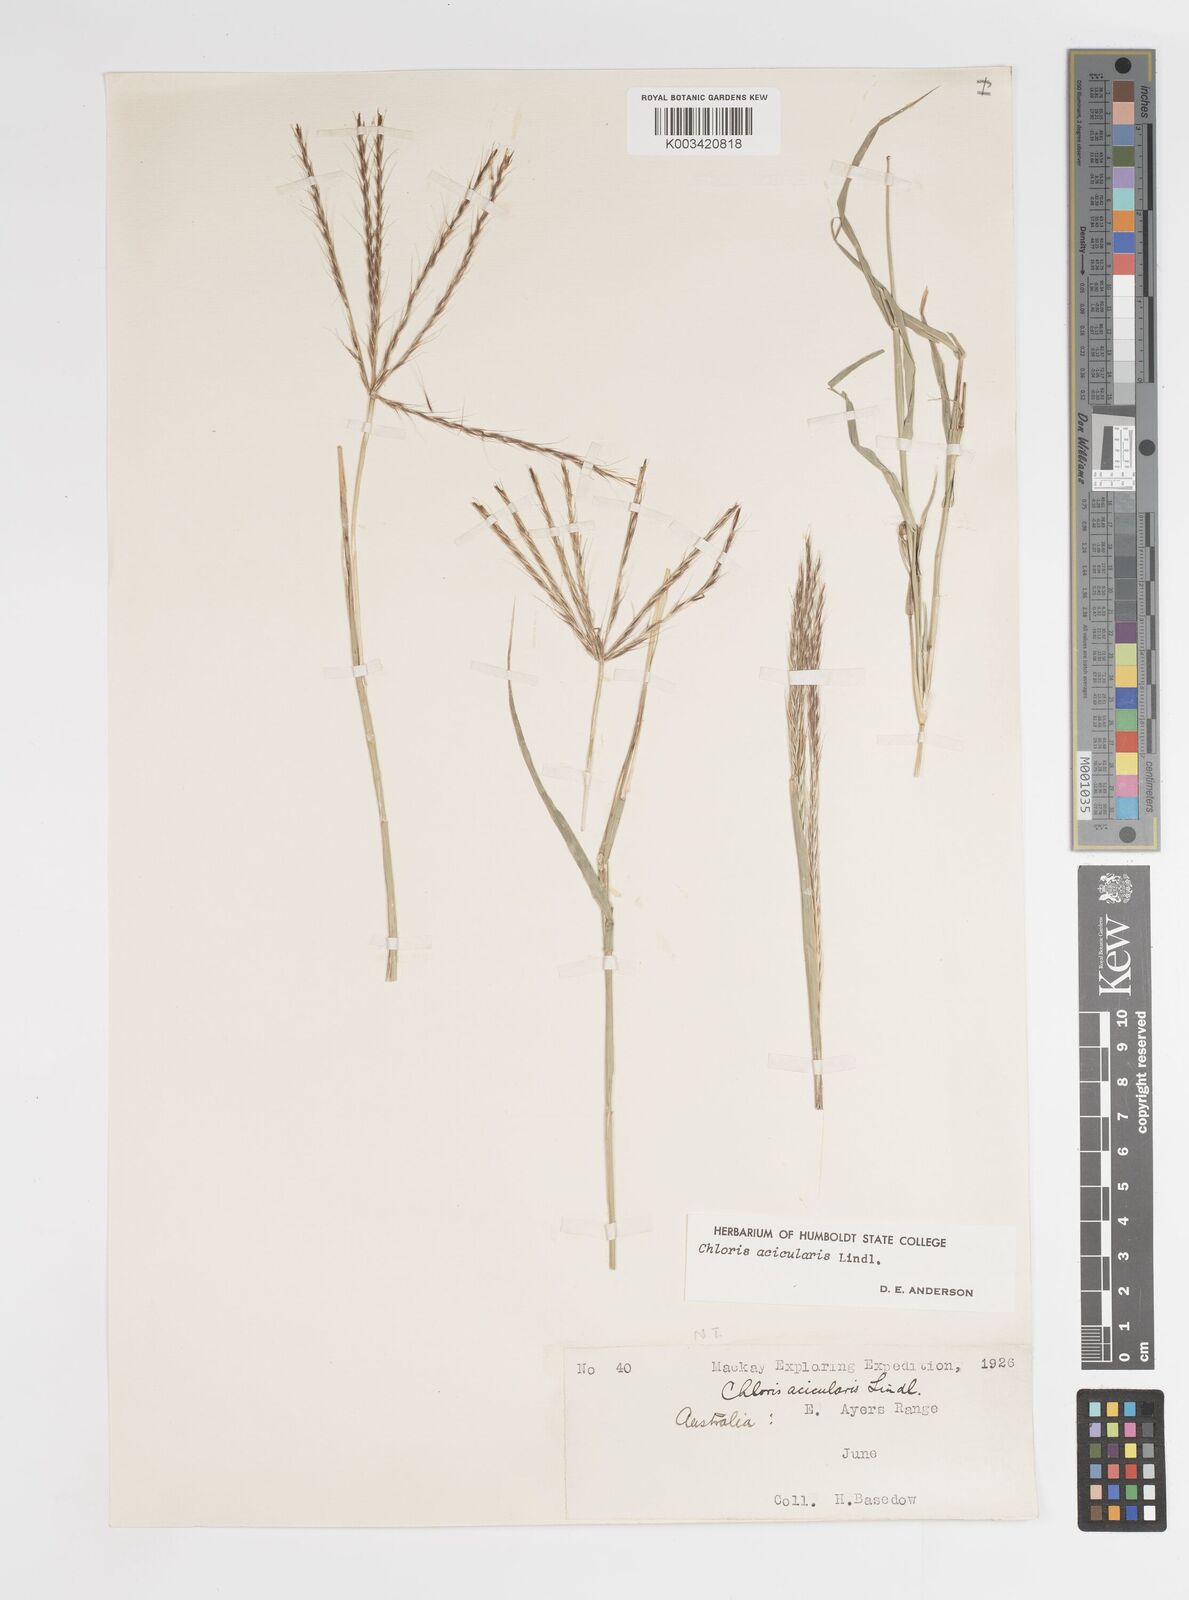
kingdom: Plantae
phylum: Tracheophyta
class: Liliopsida
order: Poales
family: Poaceae
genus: Enteropogon
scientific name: Enteropogon acicularis
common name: Curly windmill grass
